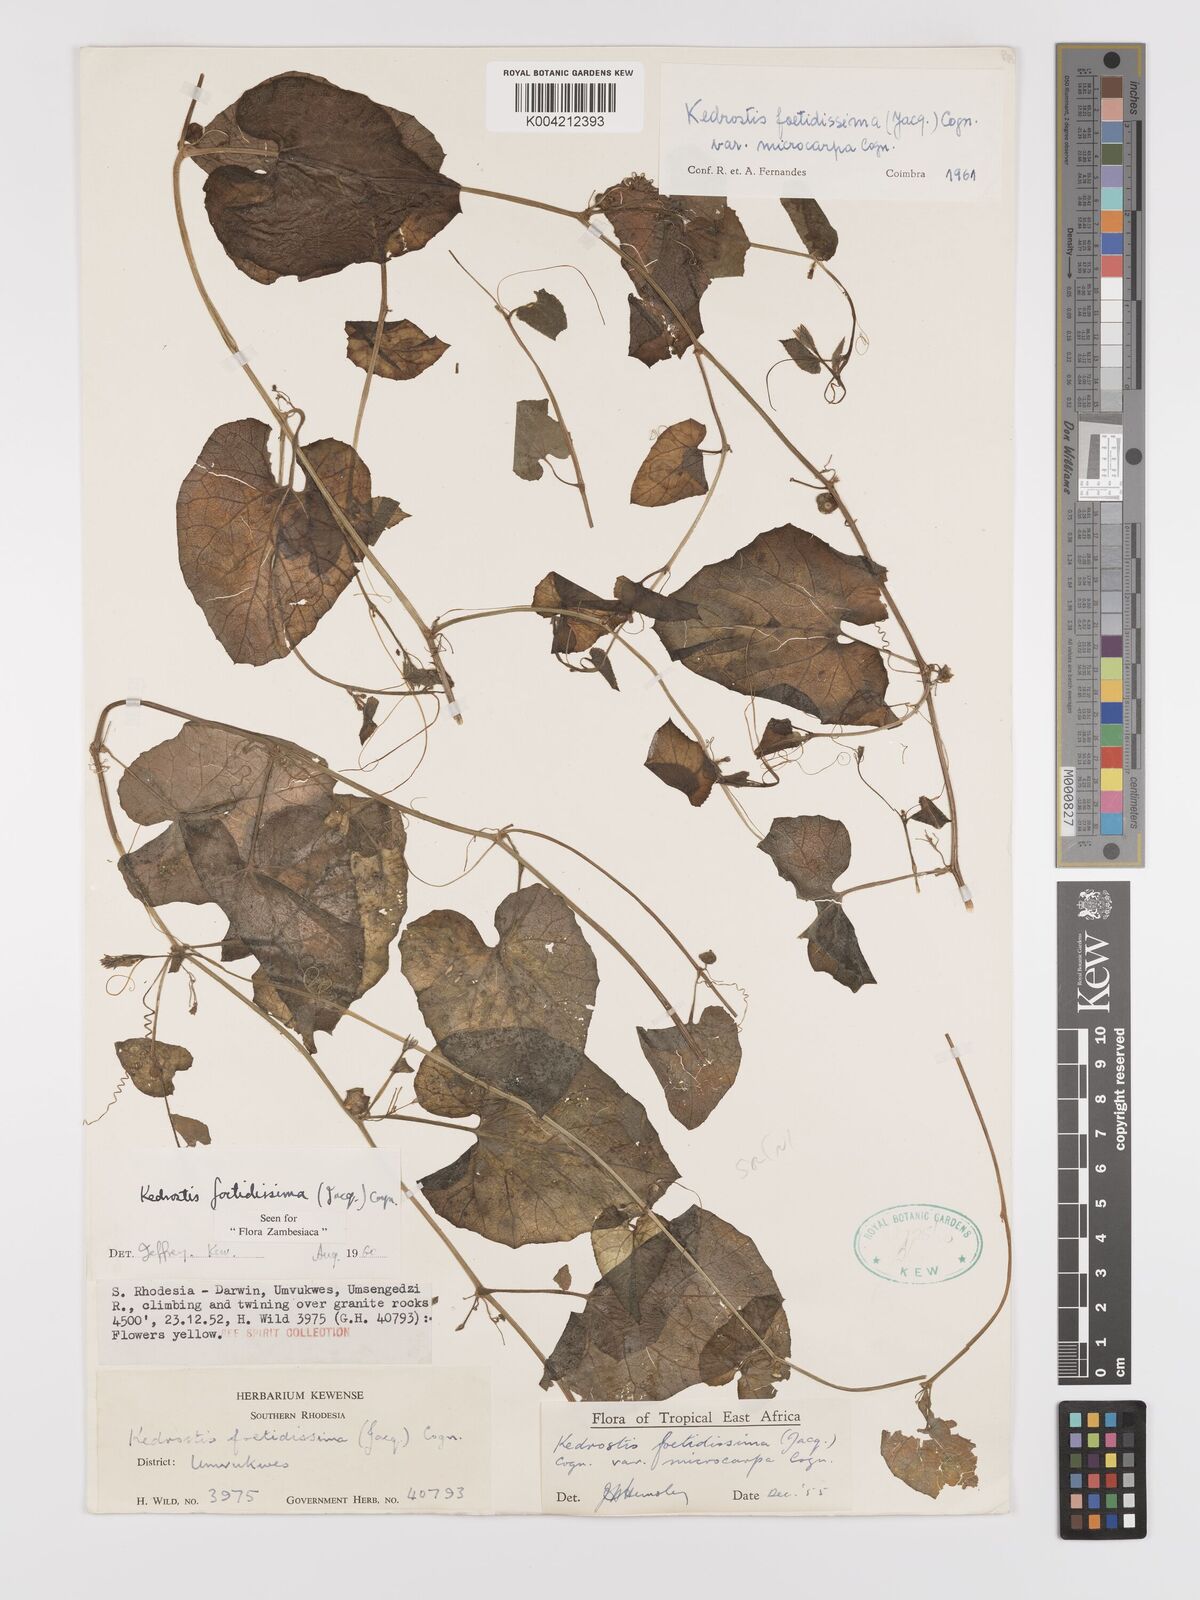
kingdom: Plantae
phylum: Tracheophyta
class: Magnoliopsida
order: Cucurbitales
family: Cucurbitaceae
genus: Kedrostis
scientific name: Kedrostis foetidissima
